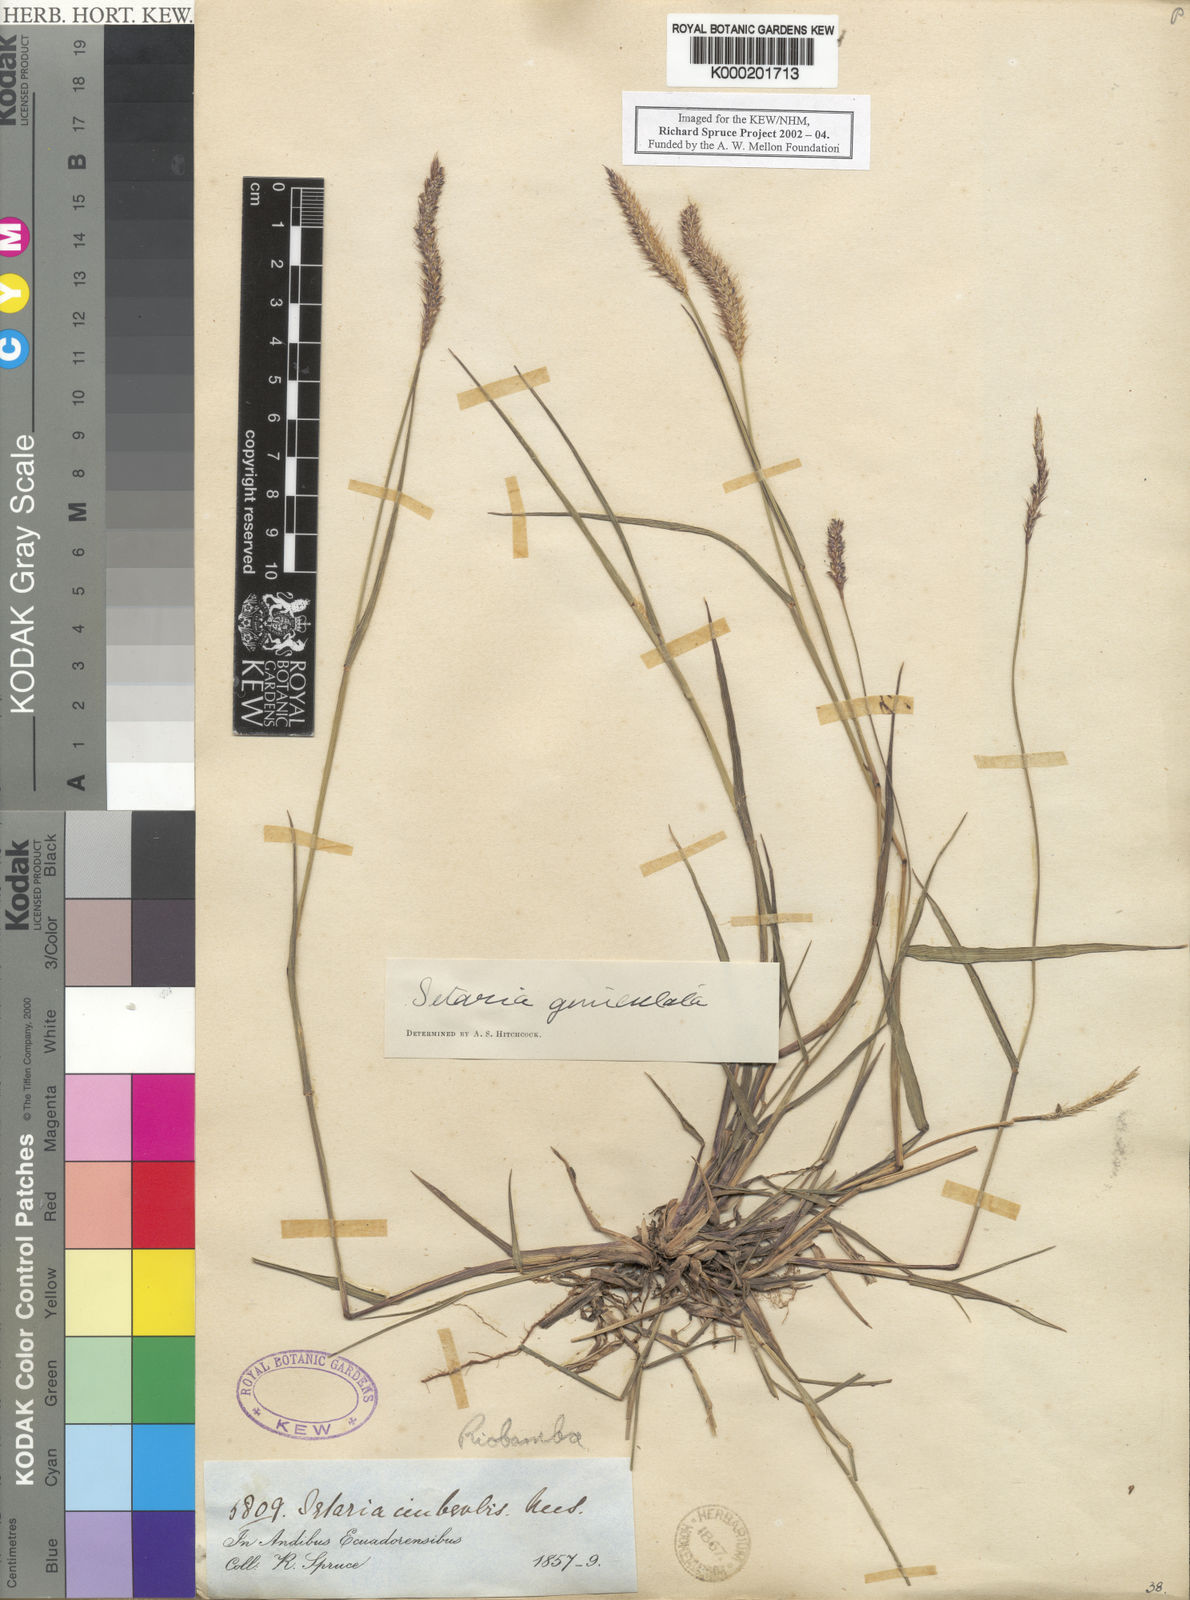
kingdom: Plantae
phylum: Tracheophyta
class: Liliopsida
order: Poales
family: Poaceae
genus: Setaria
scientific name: Setaria
